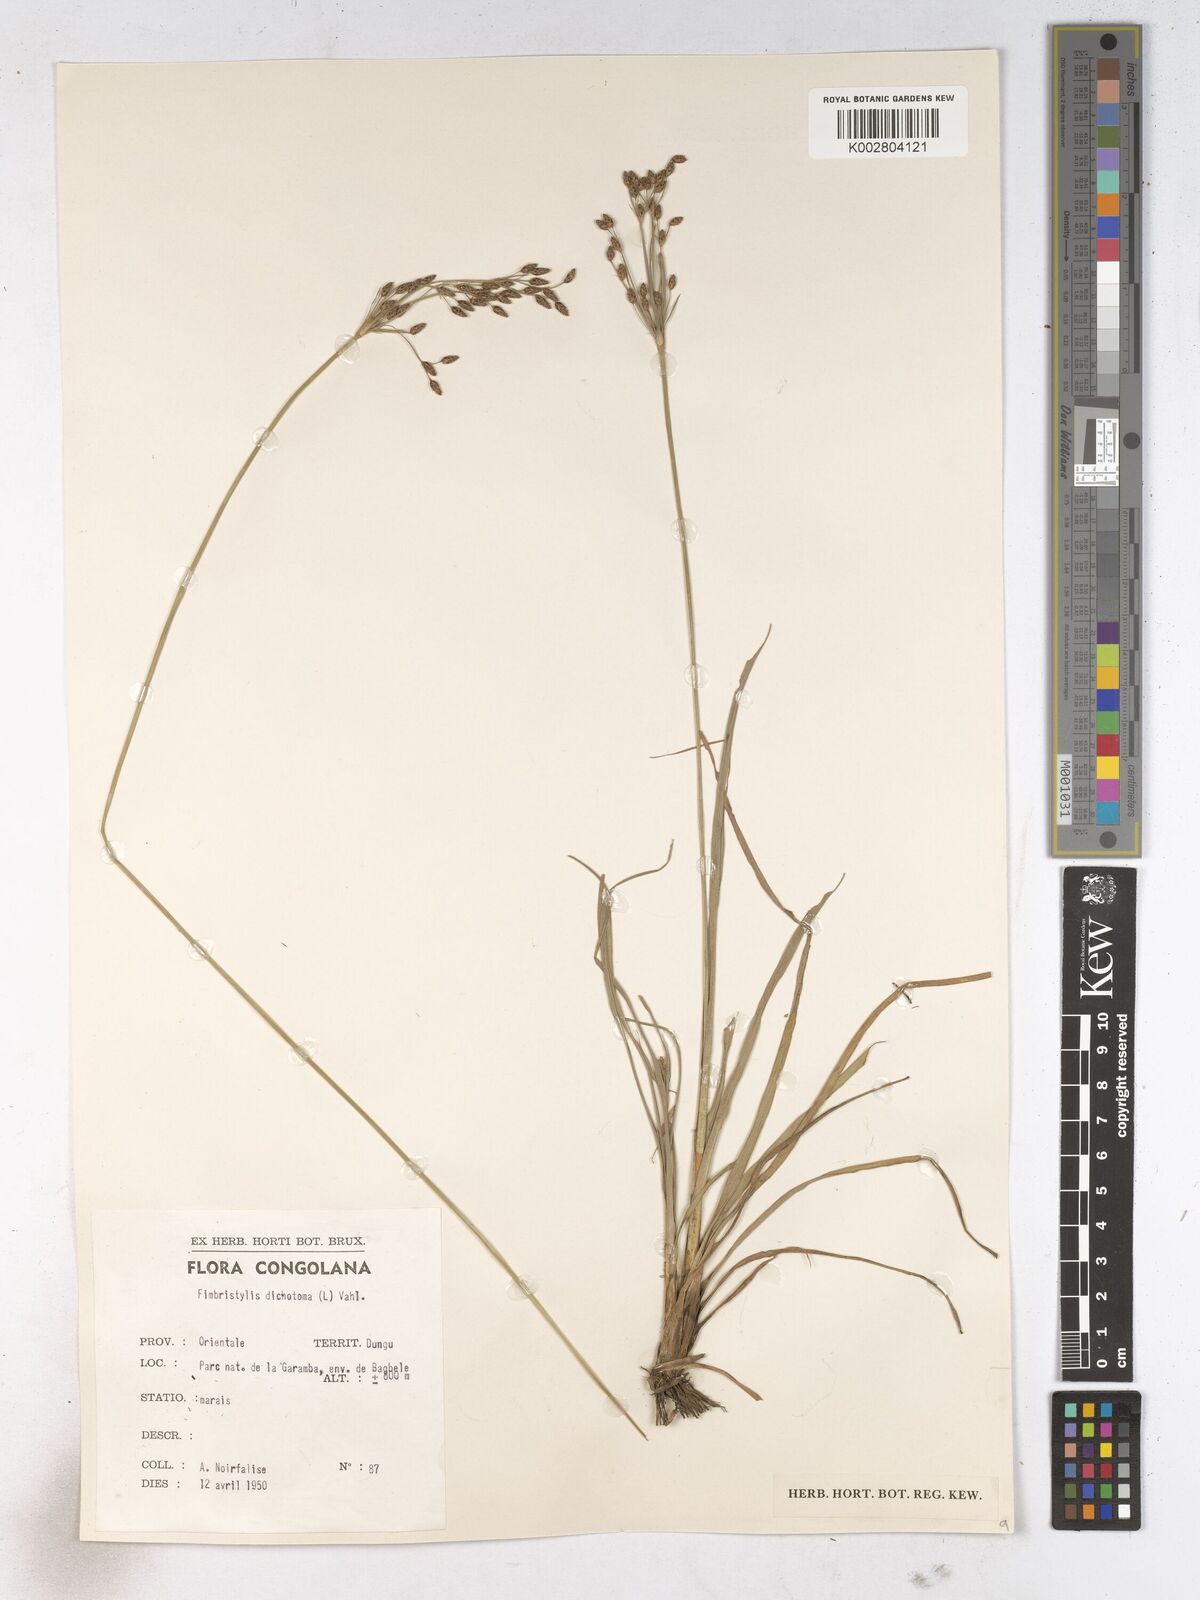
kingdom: Plantae
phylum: Tracheophyta
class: Liliopsida
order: Poales
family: Cyperaceae
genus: Fimbristylis
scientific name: Fimbristylis dichotoma
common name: Forked fimbry
